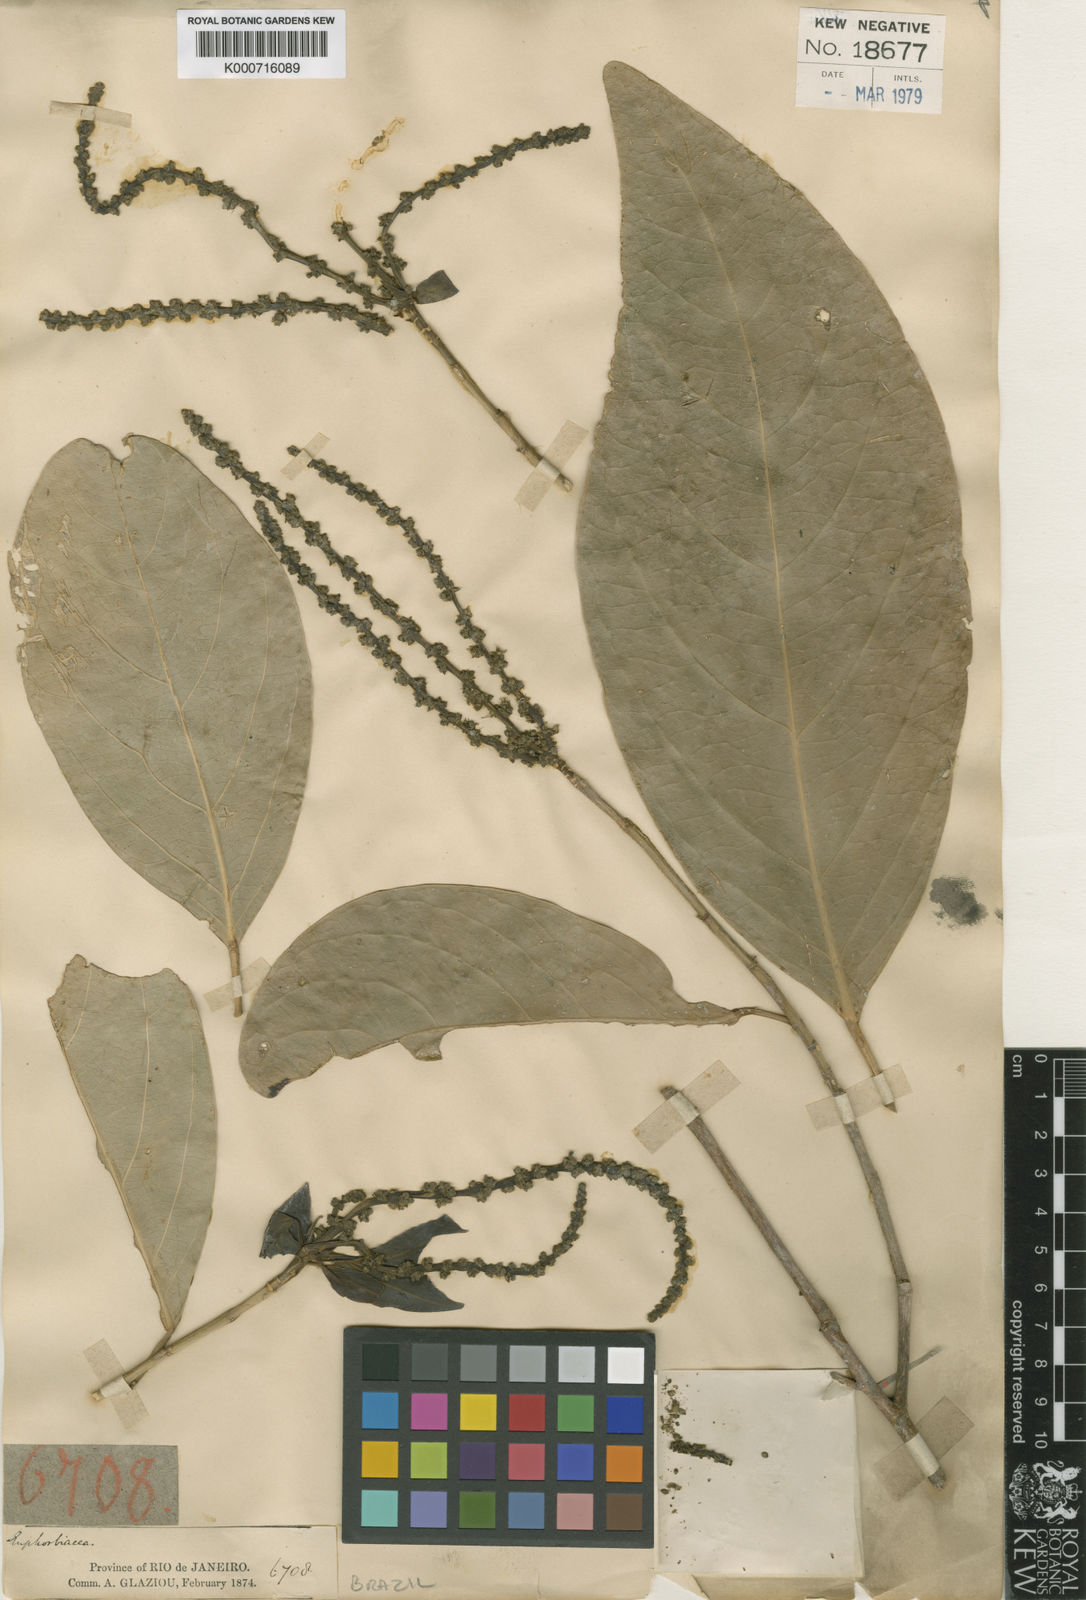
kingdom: Plantae
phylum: Tracheophyta
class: Magnoliopsida
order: Malpighiales
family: Euphorbiaceae
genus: Caryodendron
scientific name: Caryodendron
